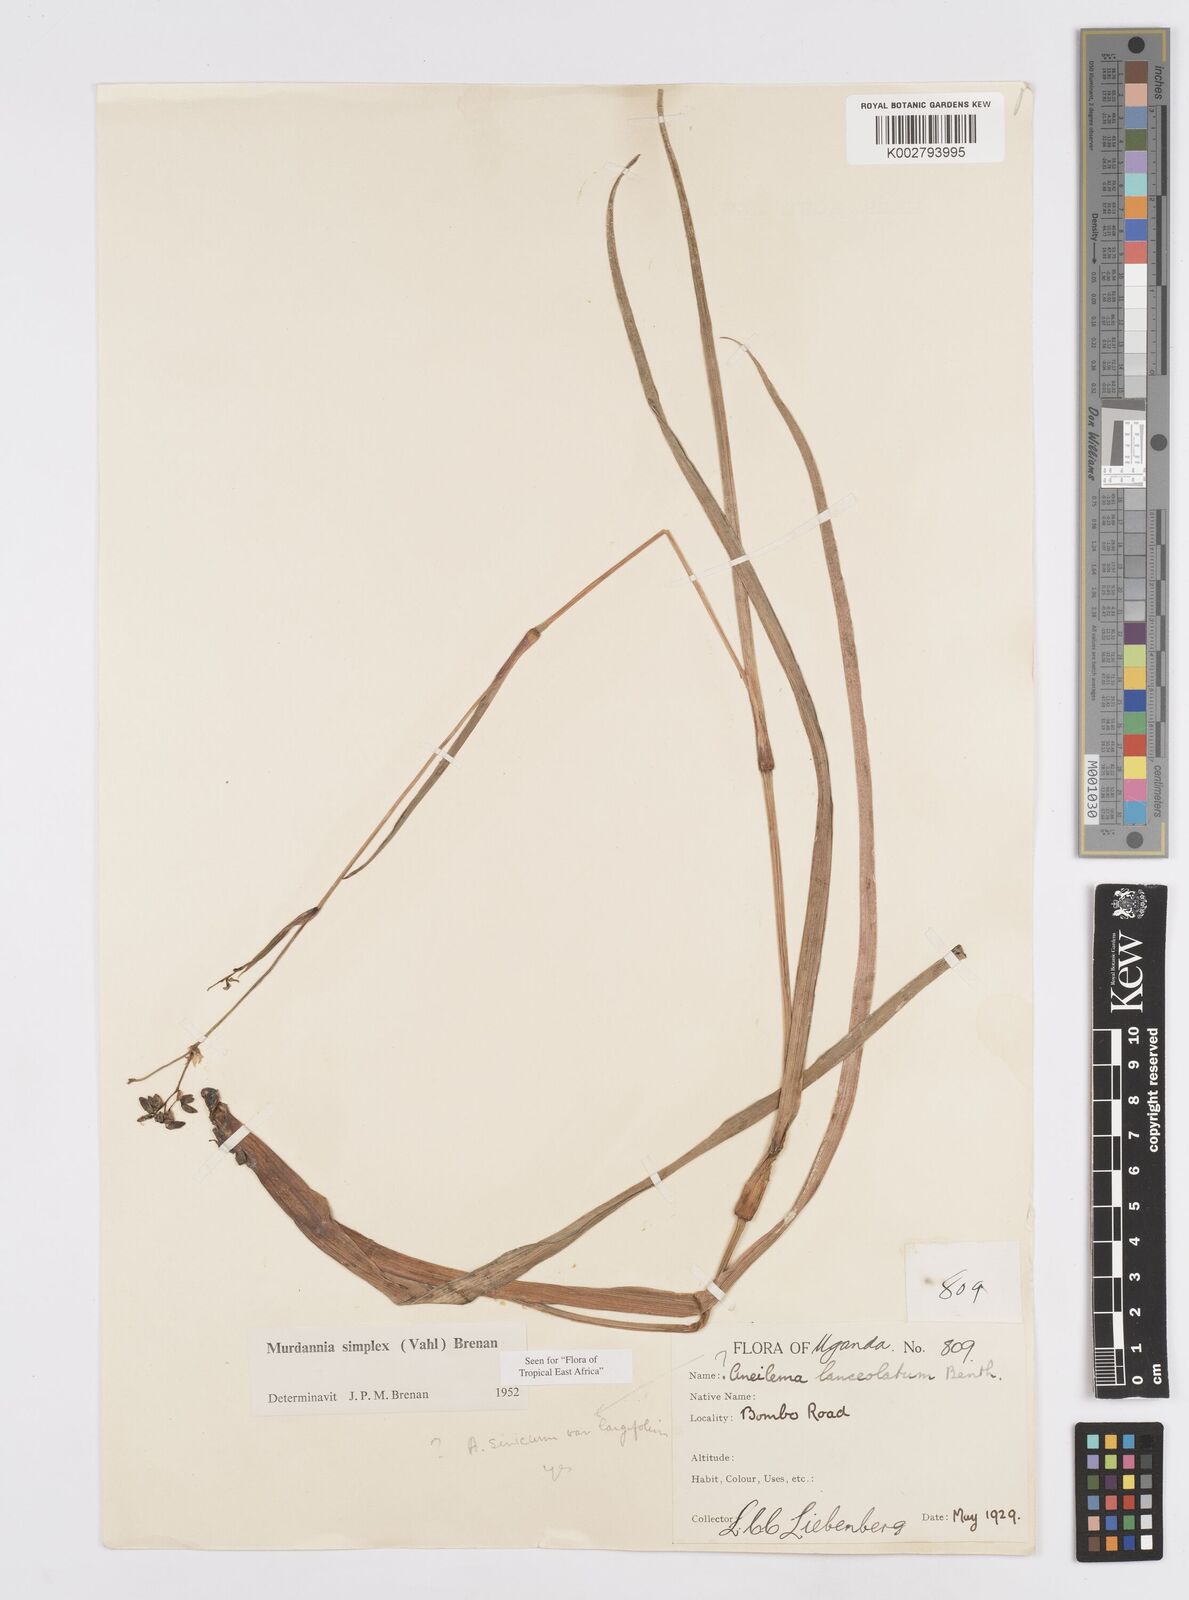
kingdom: Plantae
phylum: Tracheophyta
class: Liliopsida
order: Commelinales
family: Commelinaceae
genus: Murdannia
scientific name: Murdannia simplex
